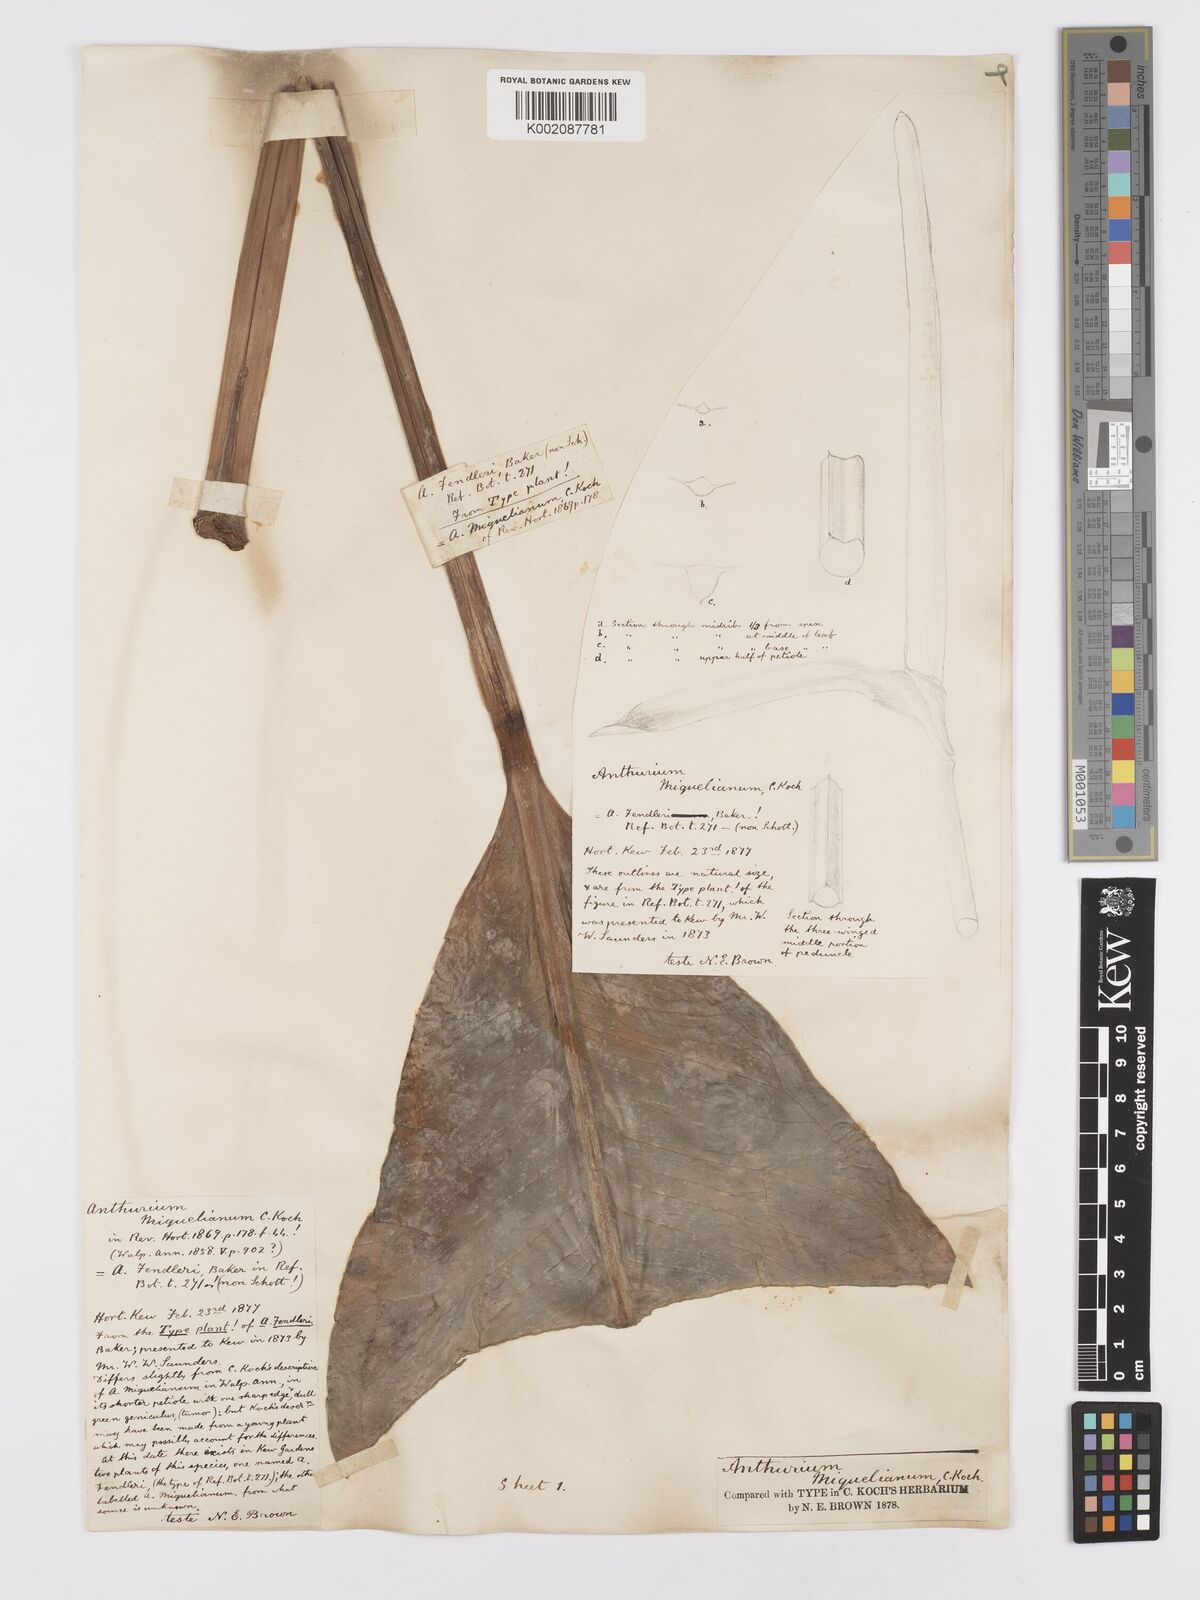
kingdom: Plantae
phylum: Tracheophyta
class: Liliopsida
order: Alismatales
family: Araceae
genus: Anthurium
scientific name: Anthurium parasiticum
